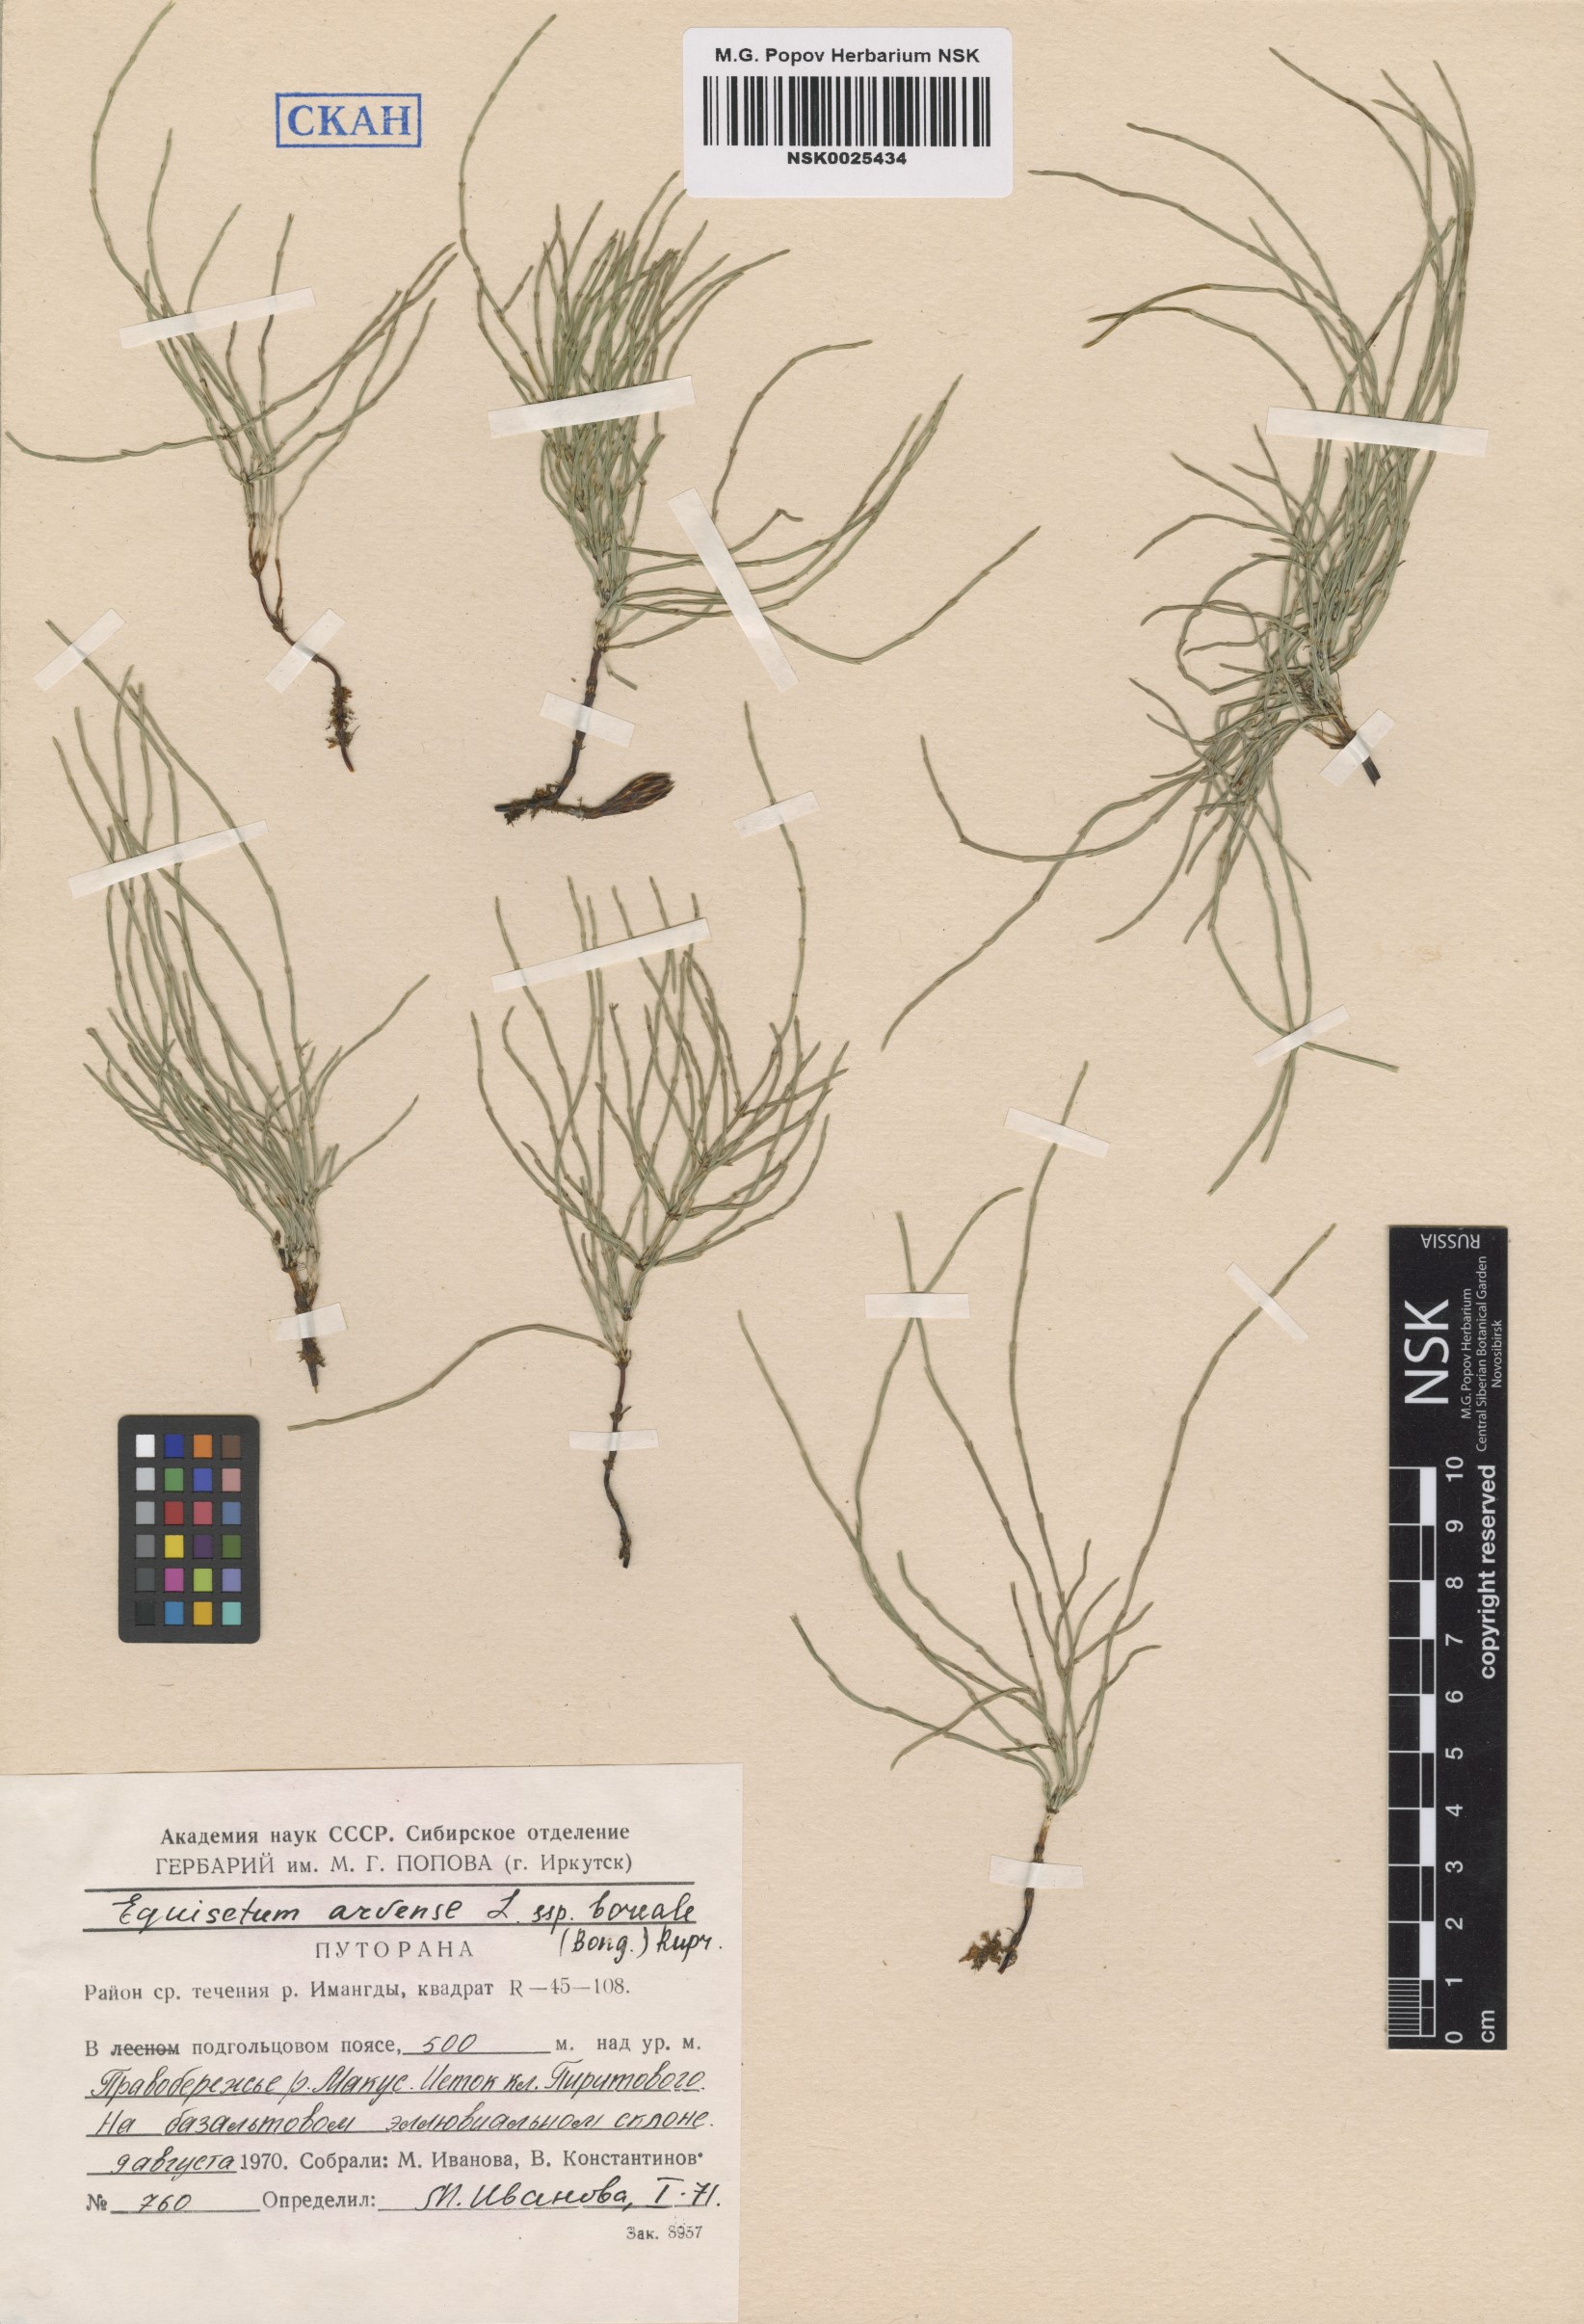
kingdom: Plantae
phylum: Tracheophyta
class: Polypodiopsida
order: Equisetales
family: Equisetaceae
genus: Equisetum
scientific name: Equisetum arvense
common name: Field horsetail
